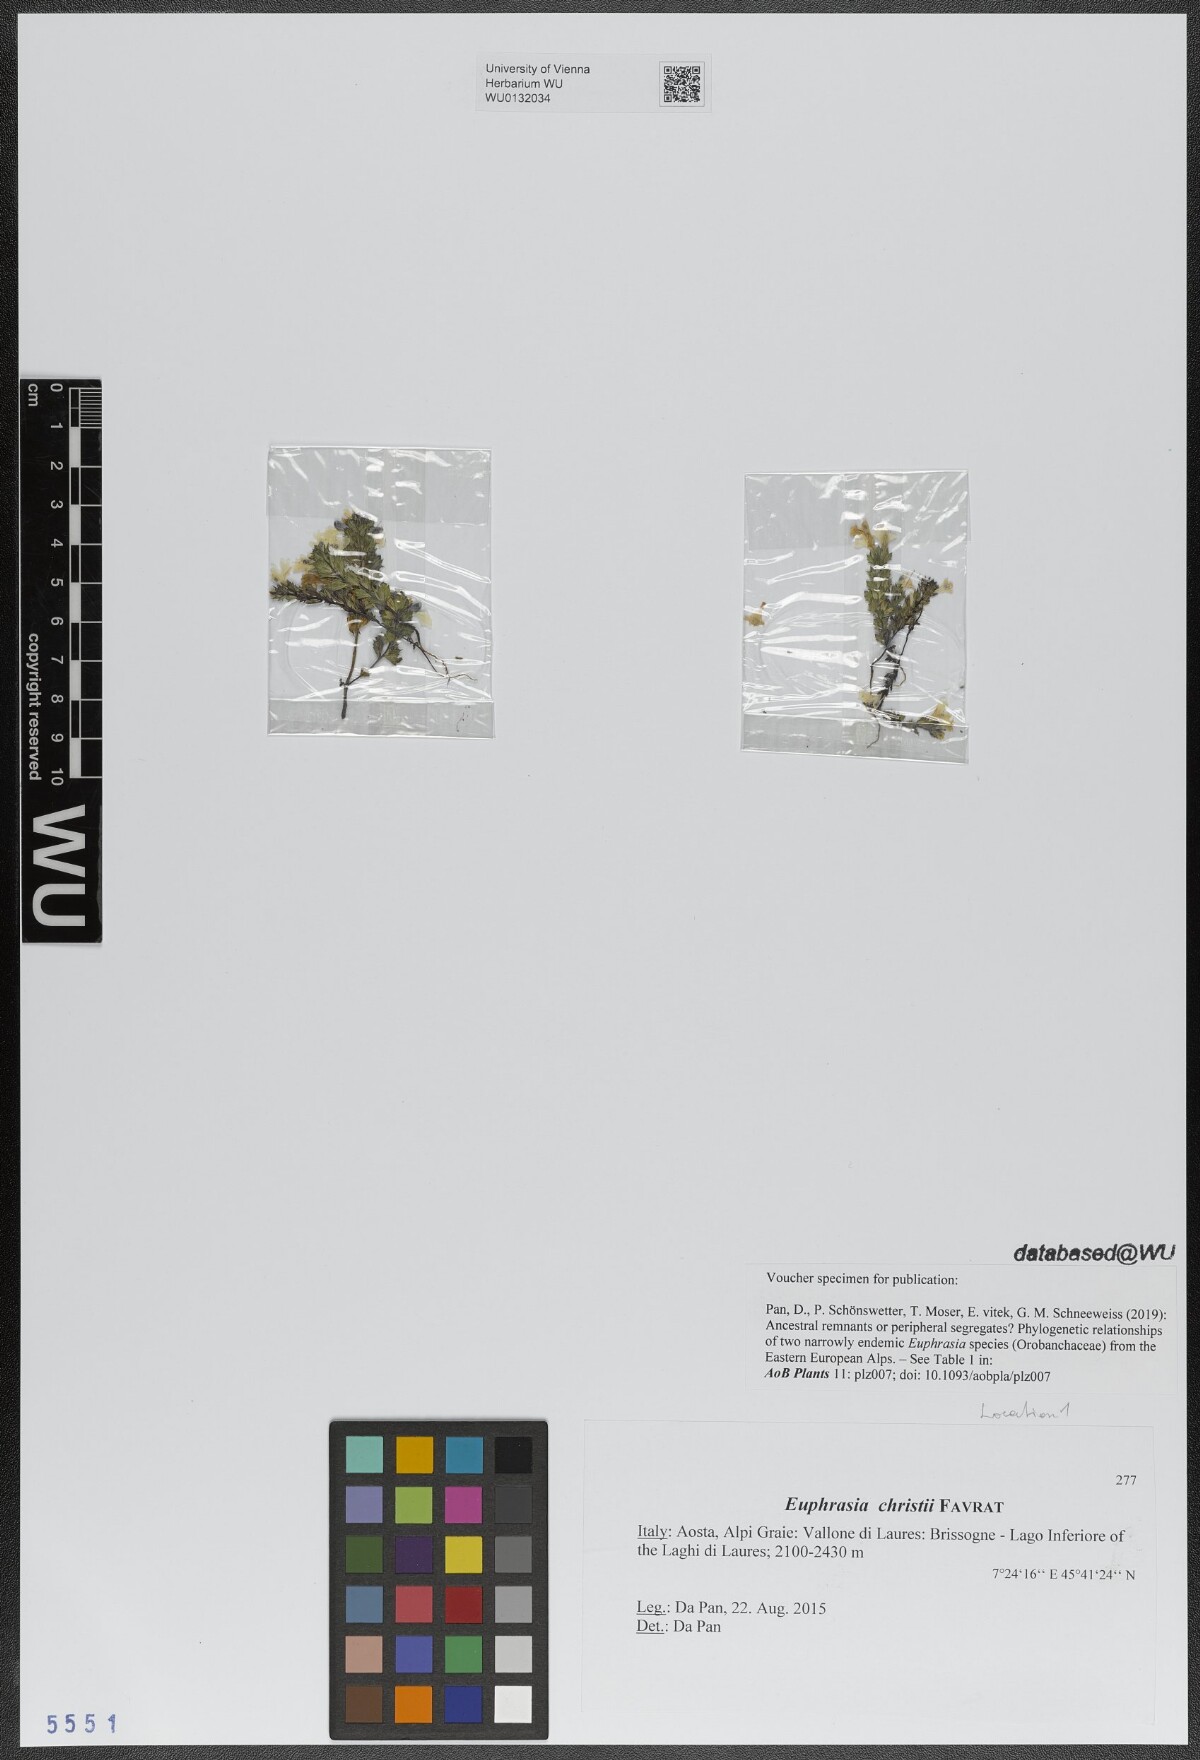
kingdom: Plantae
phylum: Tracheophyta
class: Magnoliopsida
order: Lamiales
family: Orobanchaceae
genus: Euphrasia
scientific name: Euphrasia christii
